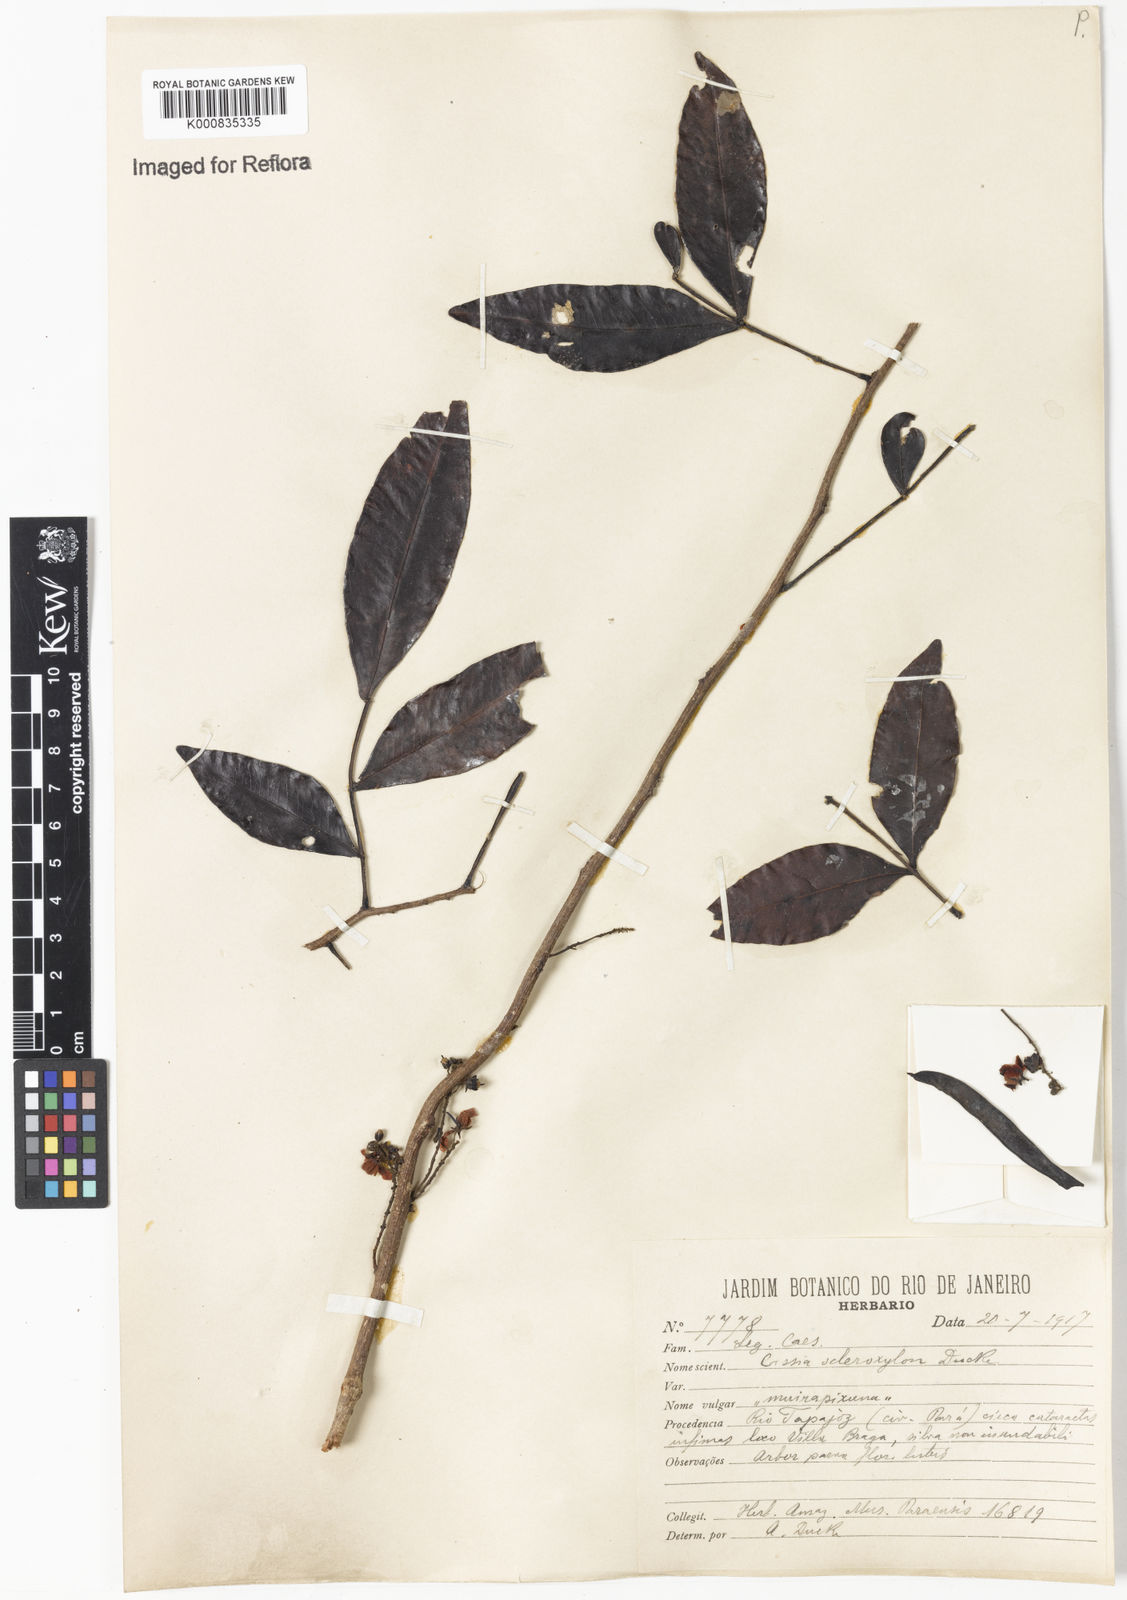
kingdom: Plantae
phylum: Tracheophyta
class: Magnoliopsida
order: Fabales
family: Fabaceae
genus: Chamaecrista
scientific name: Chamaecrista scleroxylon
